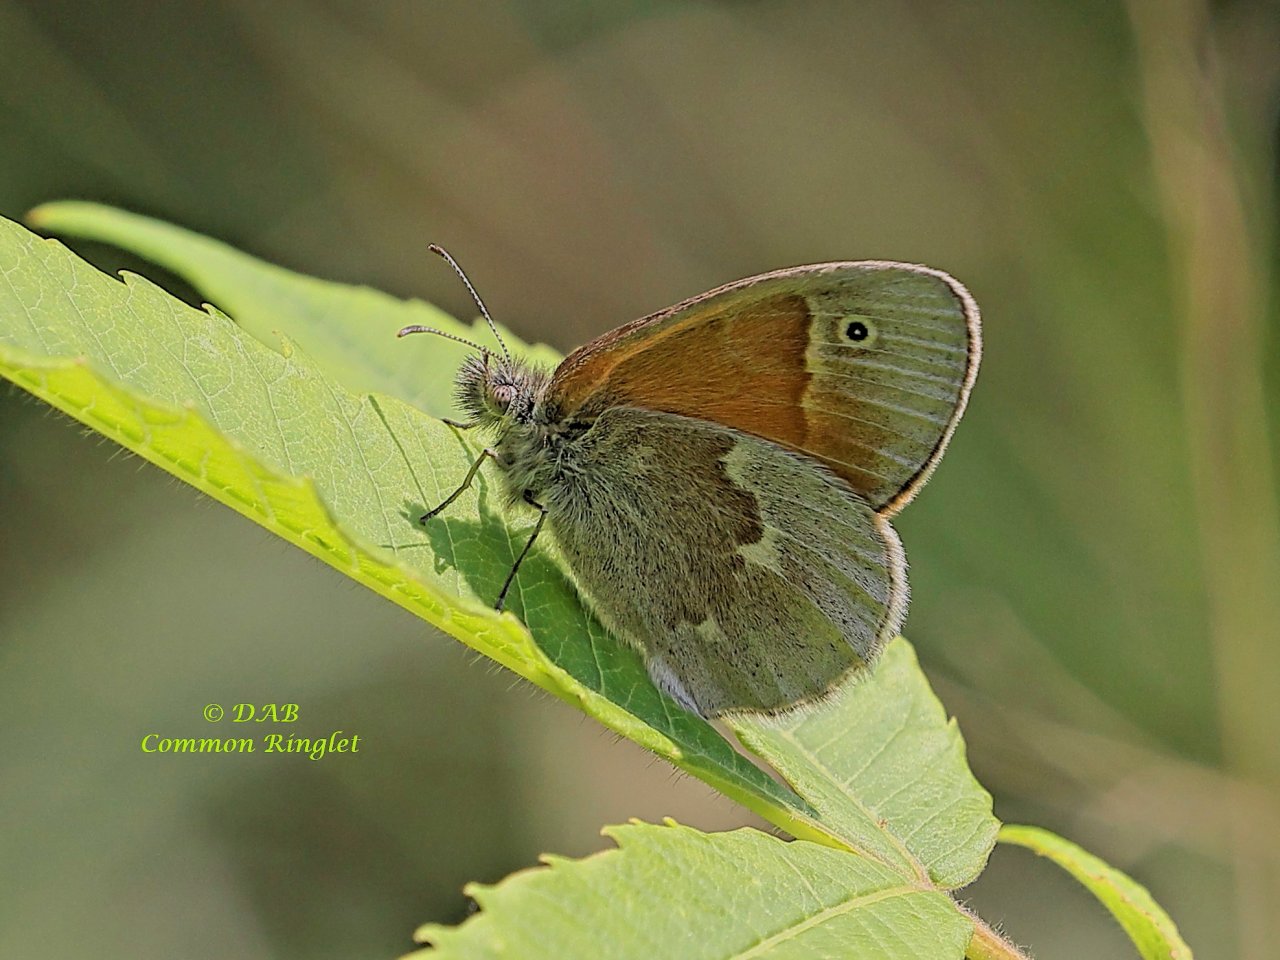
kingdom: Animalia
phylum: Arthropoda
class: Insecta
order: Lepidoptera
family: Nymphalidae
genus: Coenonympha
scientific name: Coenonympha tullia
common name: Large Heath
